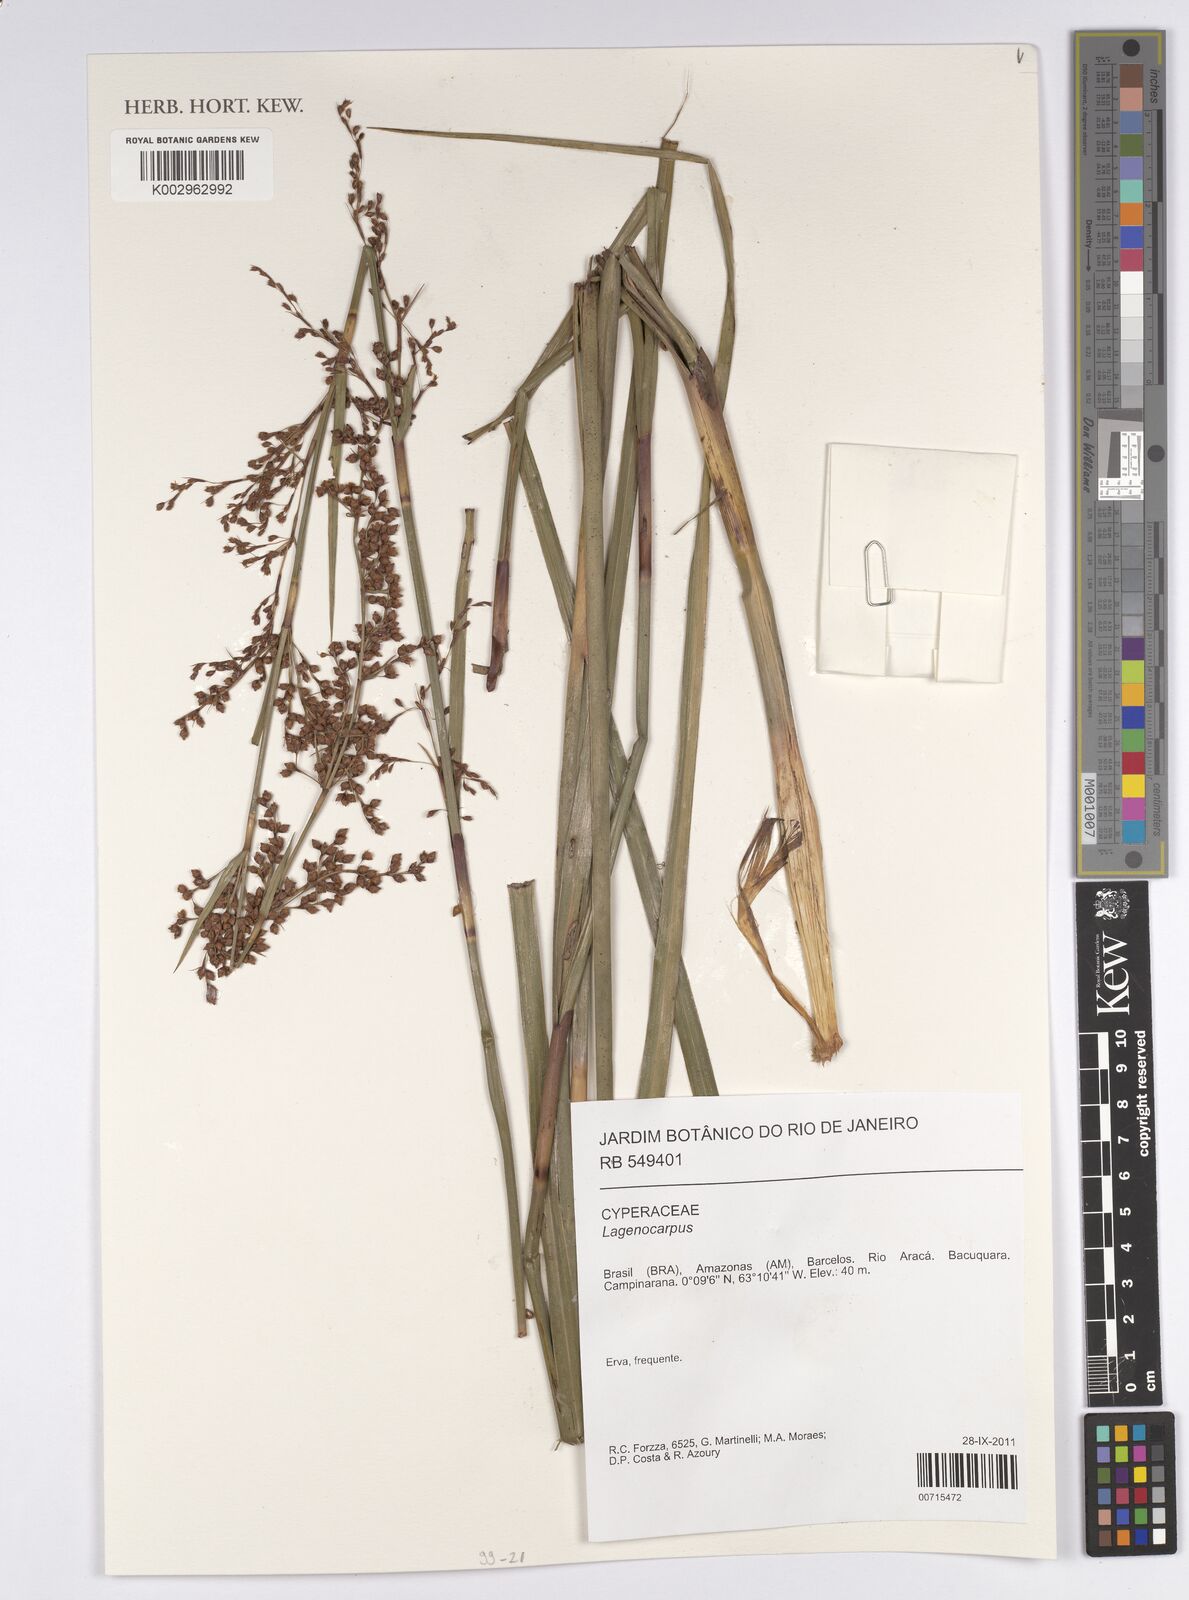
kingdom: Plantae
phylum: Tracheophyta
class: Liliopsida
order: Poales
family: Cyperaceae
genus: Lagenocarpus
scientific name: Lagenocarpus
